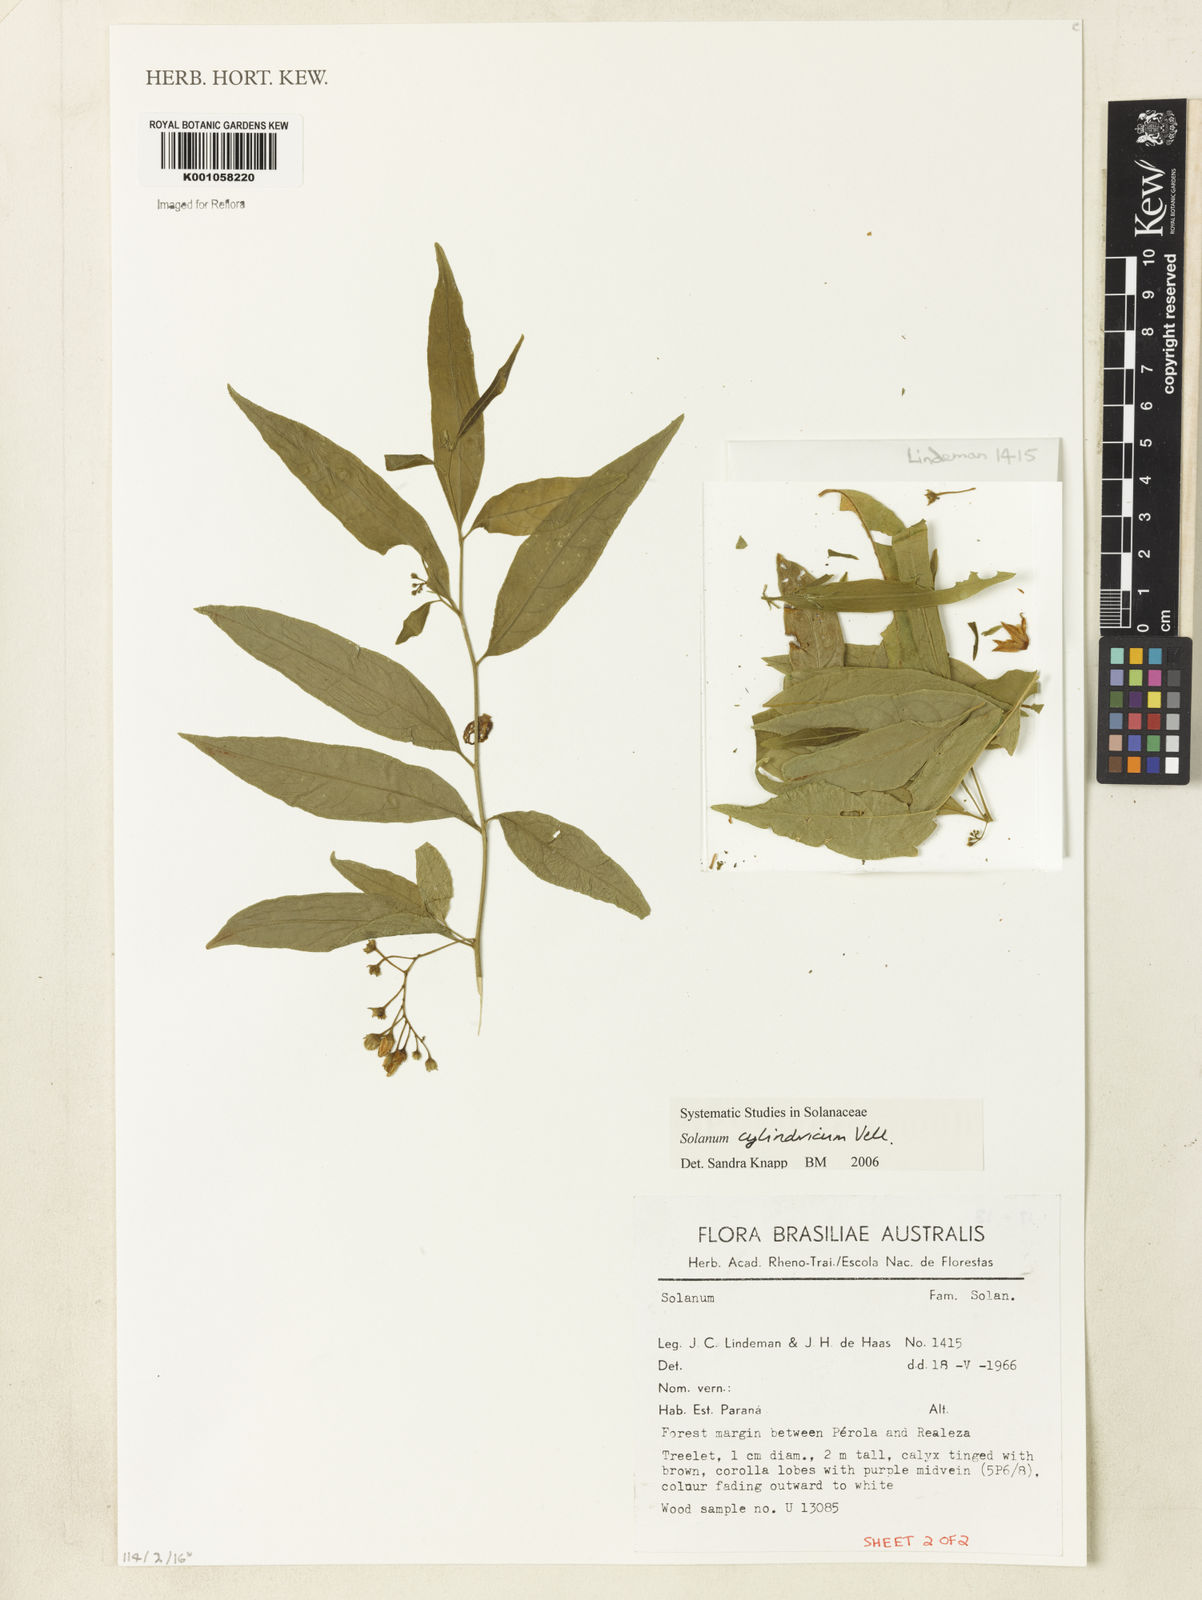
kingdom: Plantae
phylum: Tracheophyta
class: Magnoliopsida
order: Solanales
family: Solanaceae
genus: Solanum
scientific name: Solanum cylindricum
